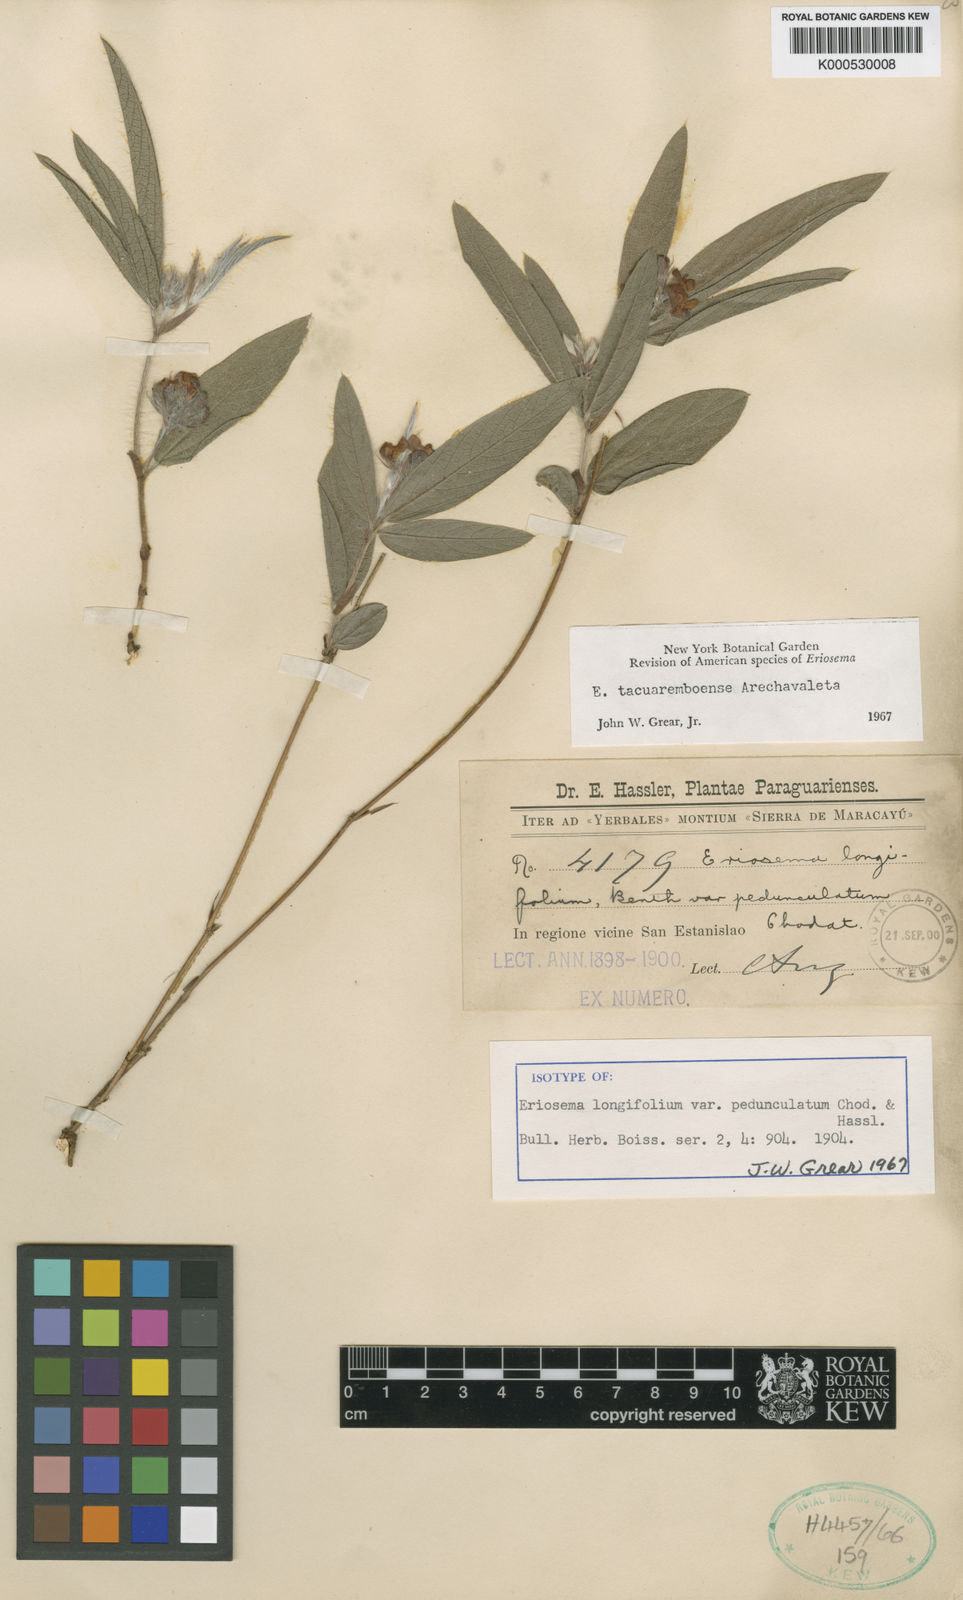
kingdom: Plantae
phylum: Tracheophyta
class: Magnoliopsida
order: Fabales
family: Fabaceae
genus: Eriosema
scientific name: Eriosema tacuaremboense
